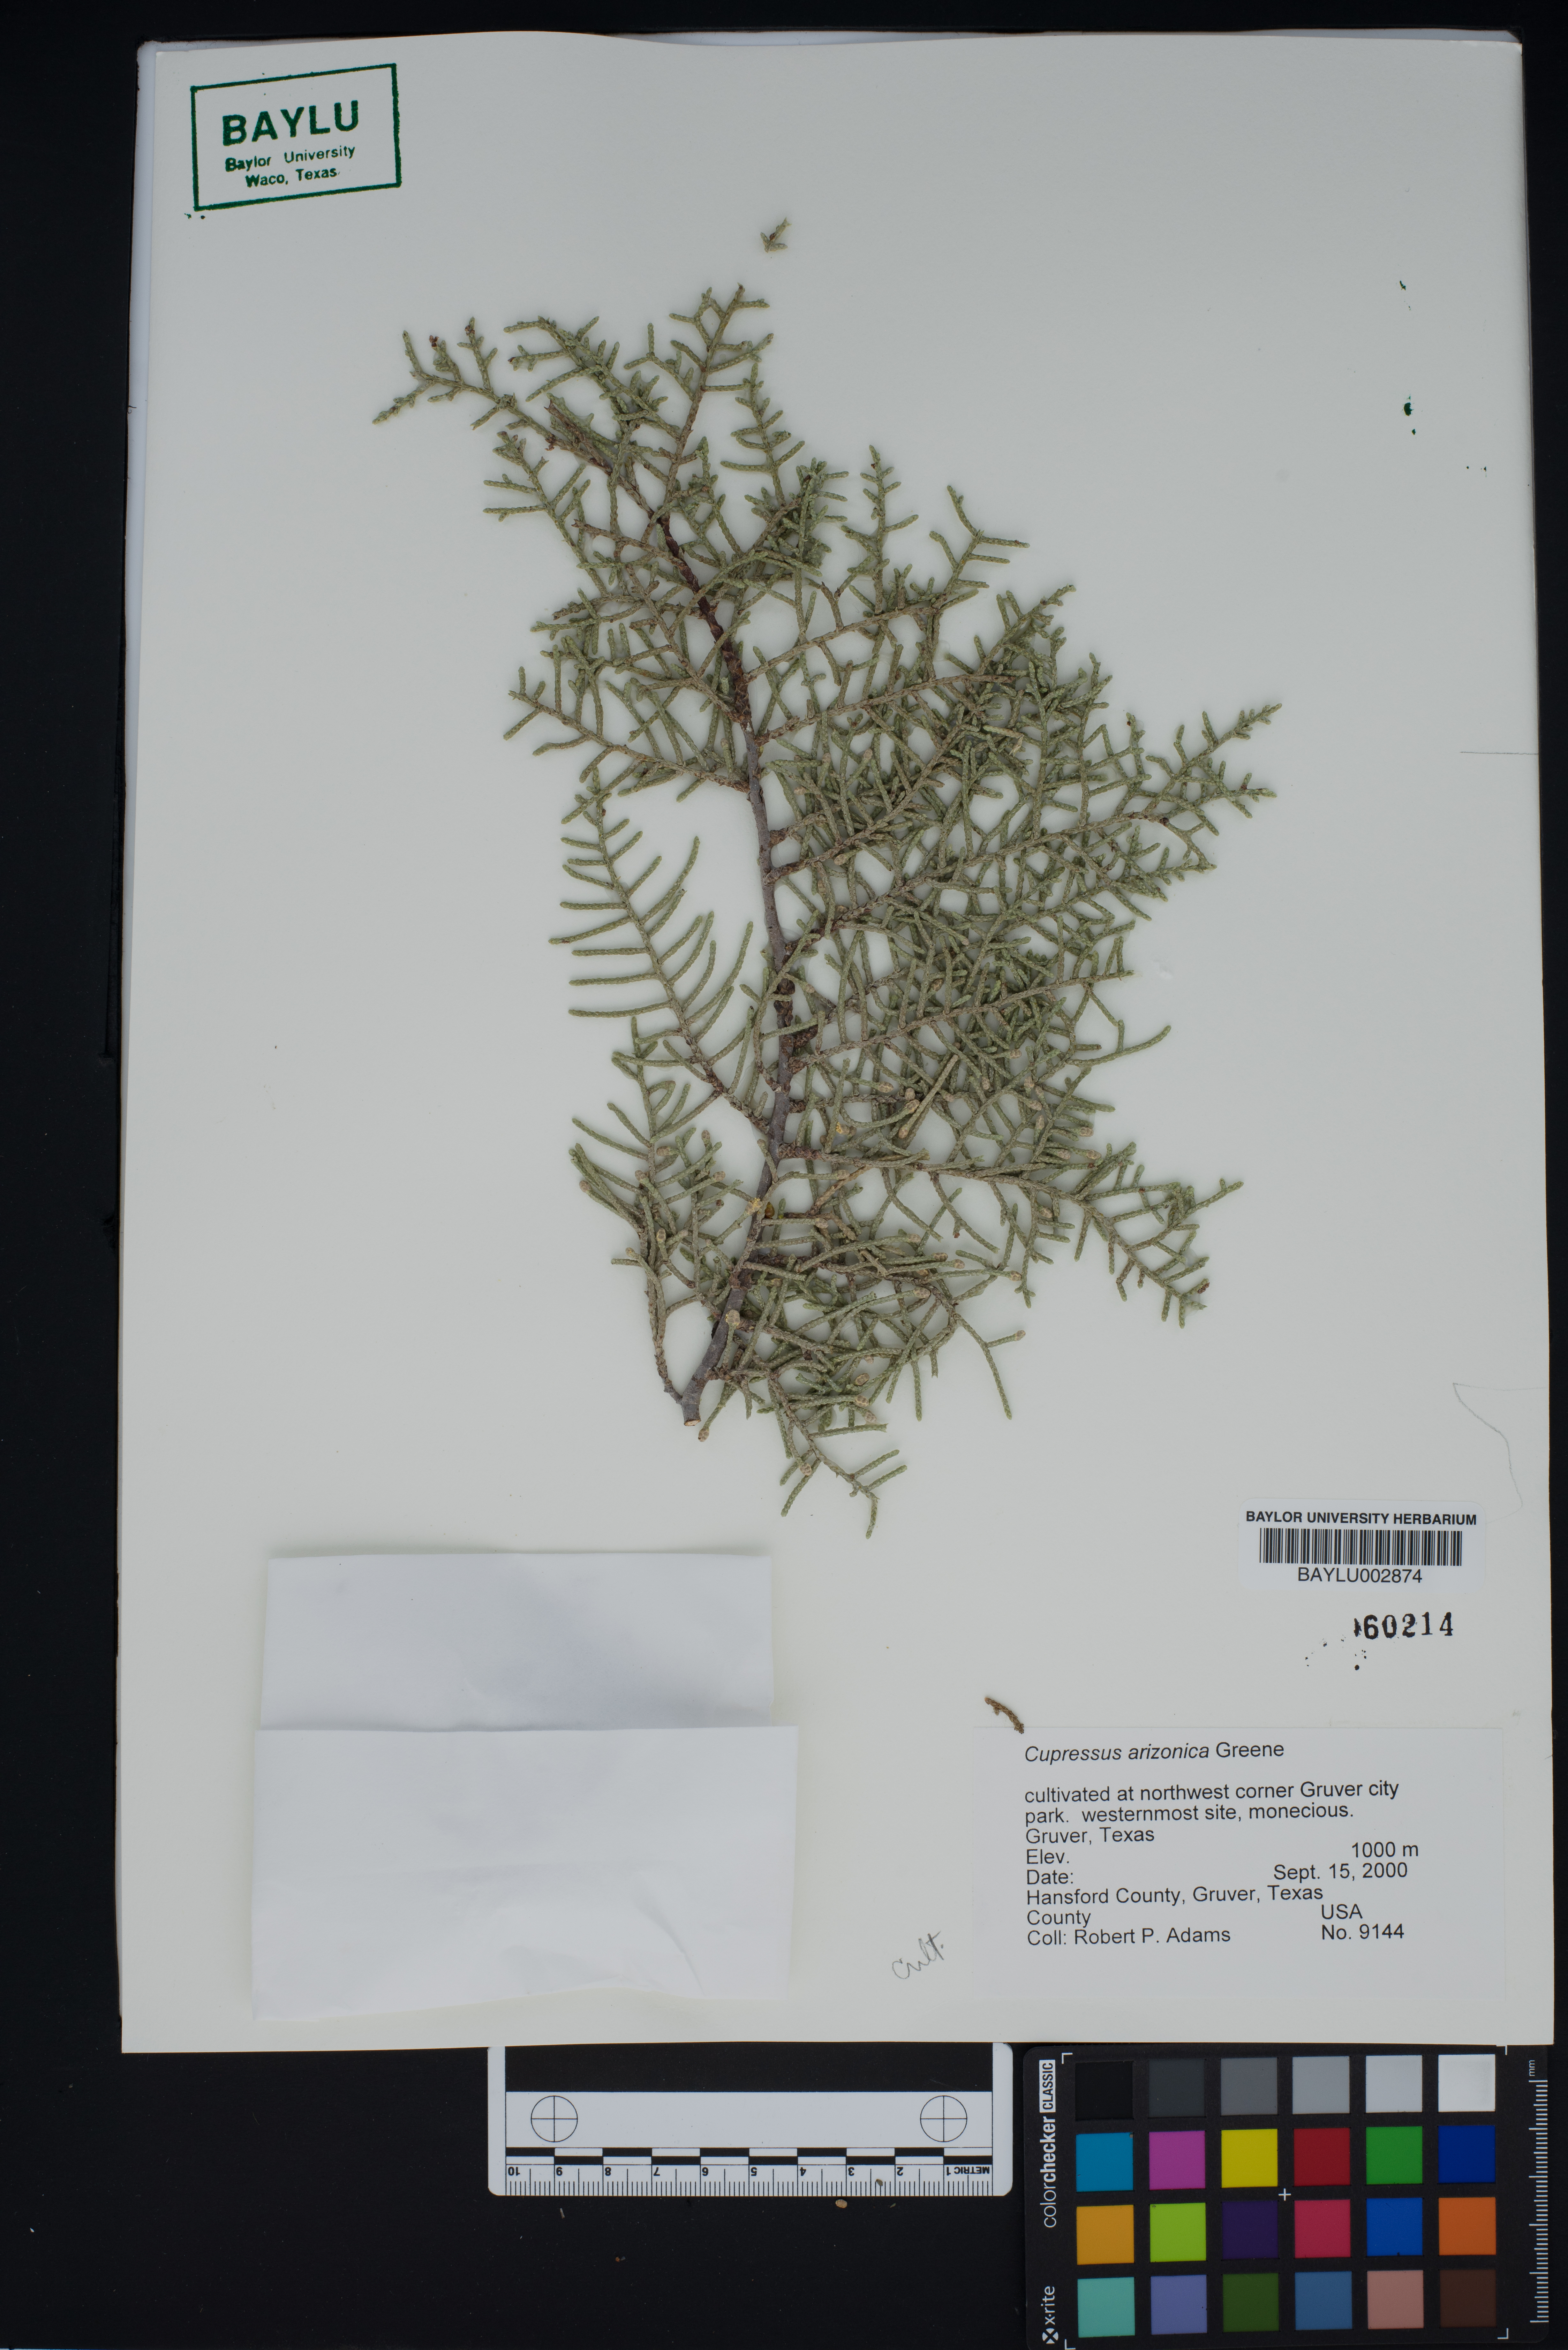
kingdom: Plantae
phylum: Tracheophyta
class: Pinopsida
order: Pinales
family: Cupressaceae
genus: Cupressus
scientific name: Cupressus arizonica
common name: Arizona cypress
